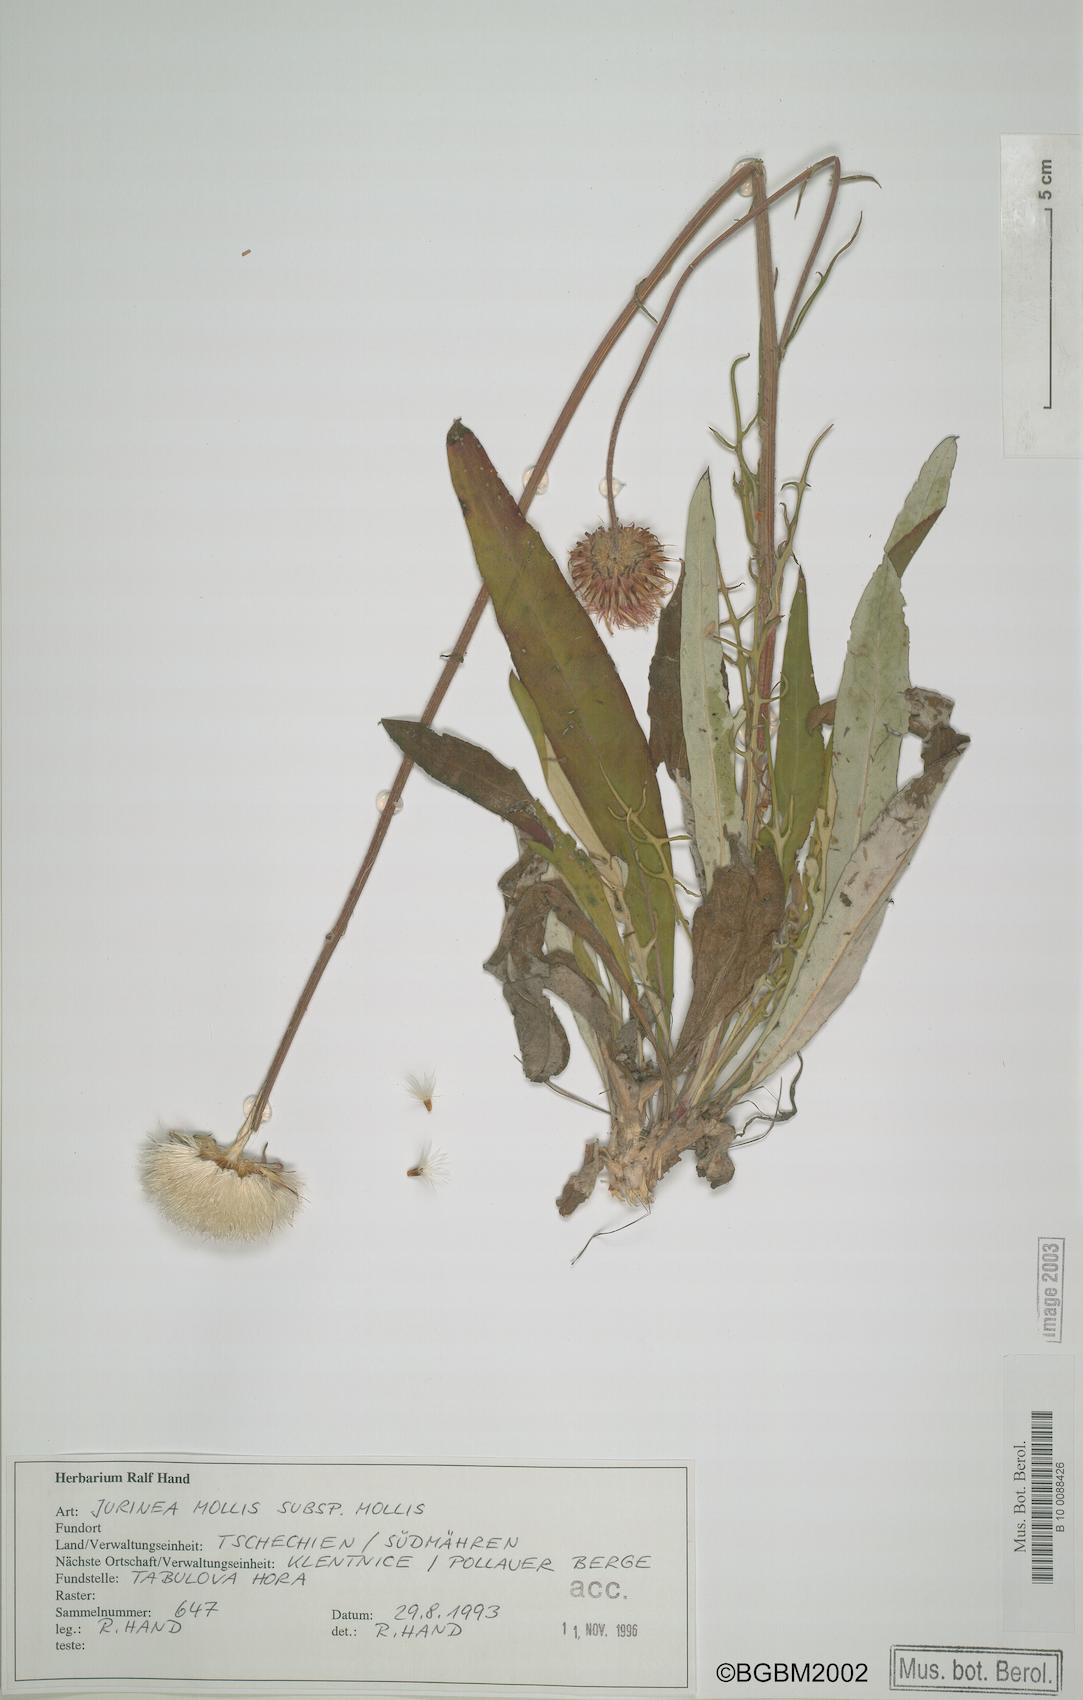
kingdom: Plantae
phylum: Tracheophyta
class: Magnoliopsida
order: Asterales
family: Asteraceae
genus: Jurinea
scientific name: Jurinea mollis
